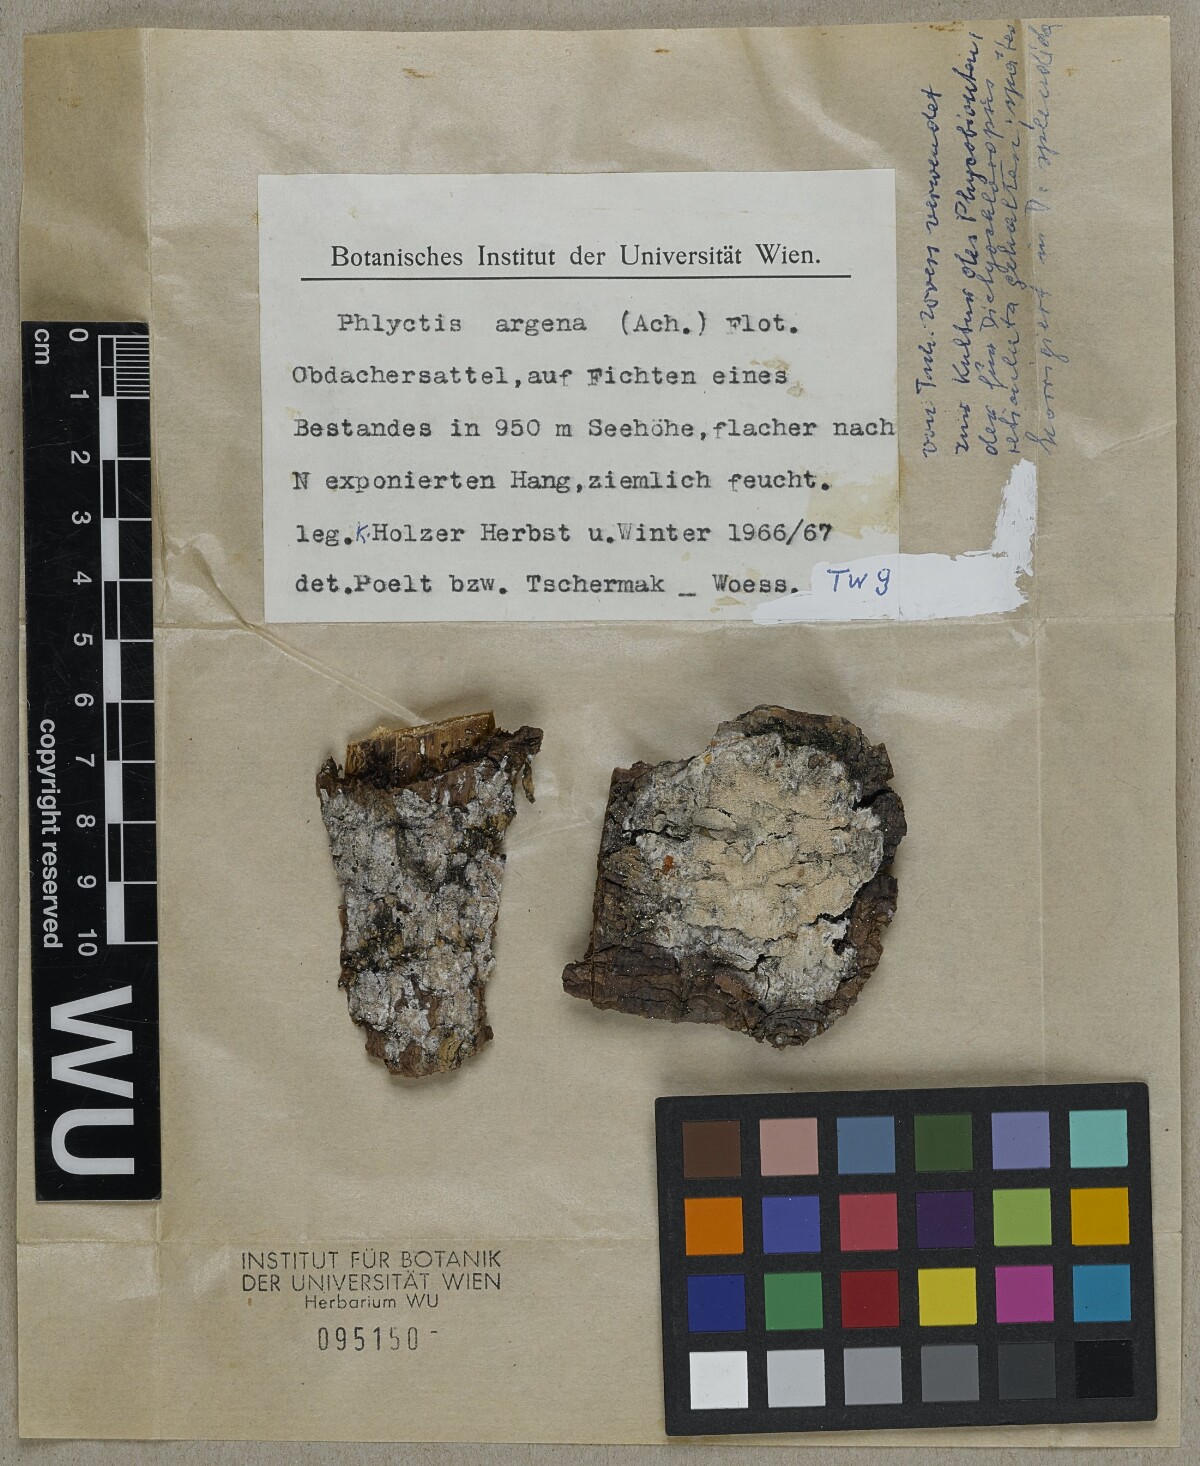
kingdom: Fungi
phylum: Ascomycota
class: Lecanoromycetes
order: Ostropales
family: Phlyctidaceae
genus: Phlyctis
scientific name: Phlyctis argena
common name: Whitewash lichen
